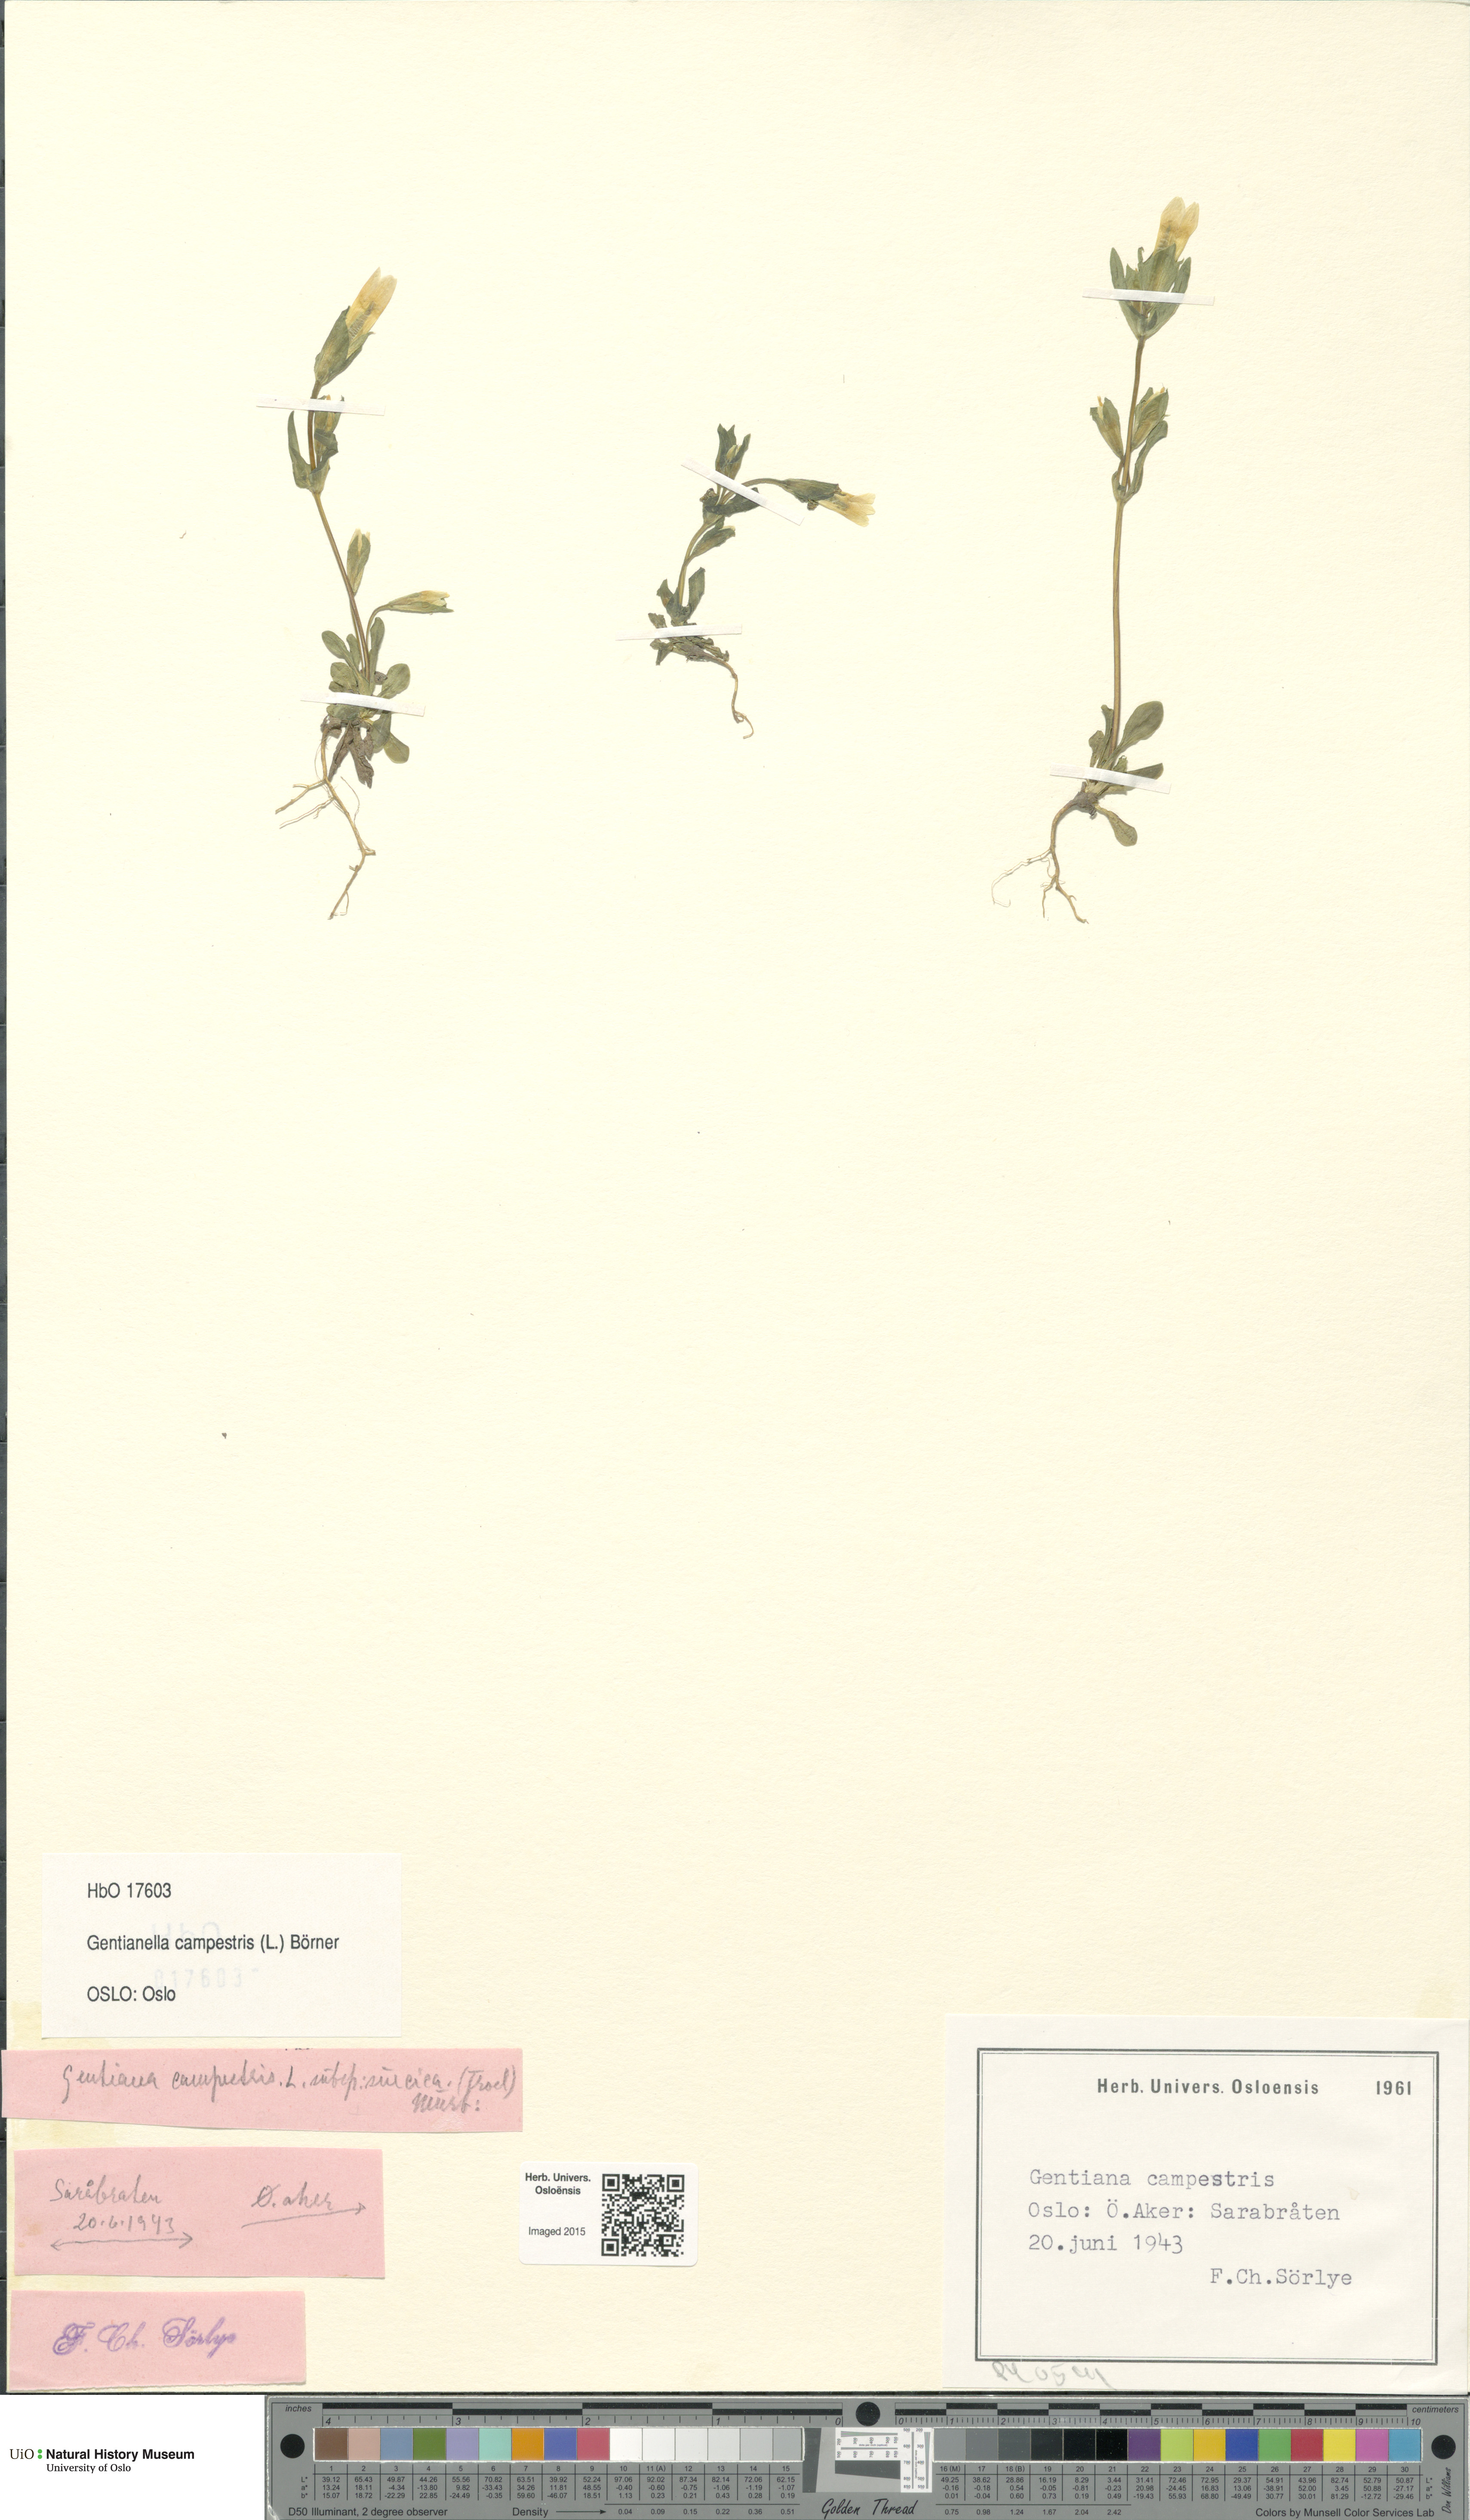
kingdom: Plantae
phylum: Tracheophyta
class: Magnoliopsida
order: Gentianales
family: Gentianaceae
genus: Gentianella
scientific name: Gentianella campestris
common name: Field gentian
